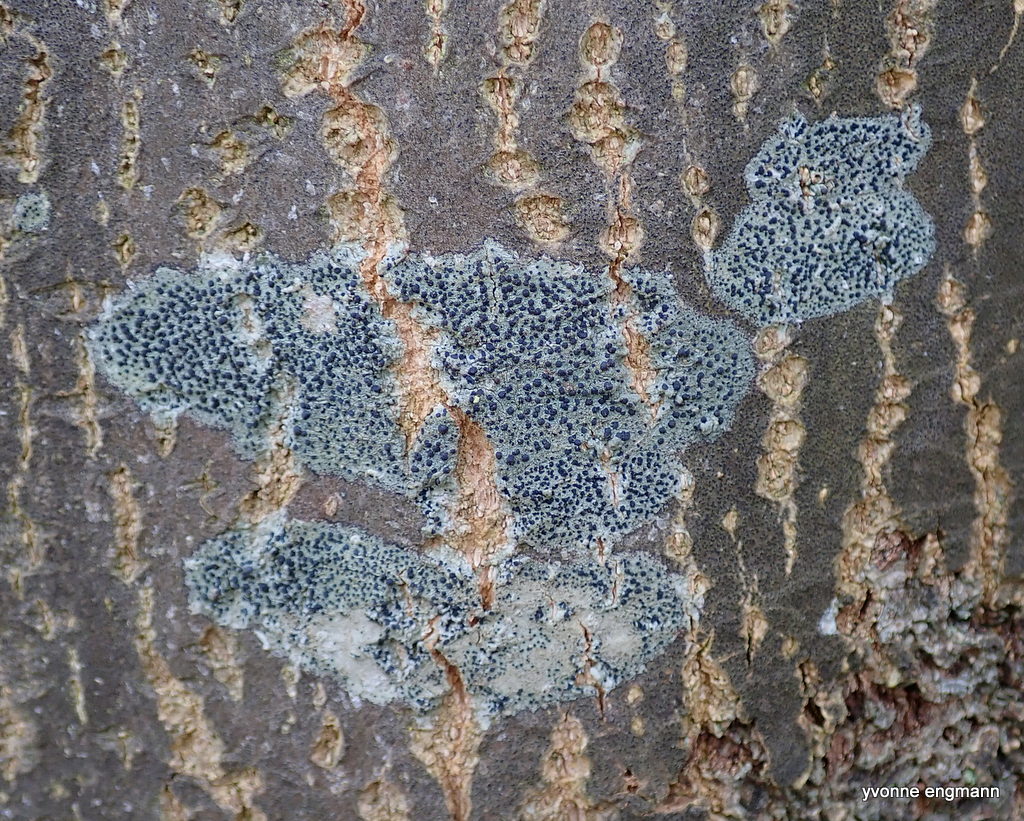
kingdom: Fungi
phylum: Ascomycota
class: Lecanoromycetes
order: Lecanorales
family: Lecanoraceae
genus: Lecidella
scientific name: Lecidella elaeochroma
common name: grågrøn skivelav
